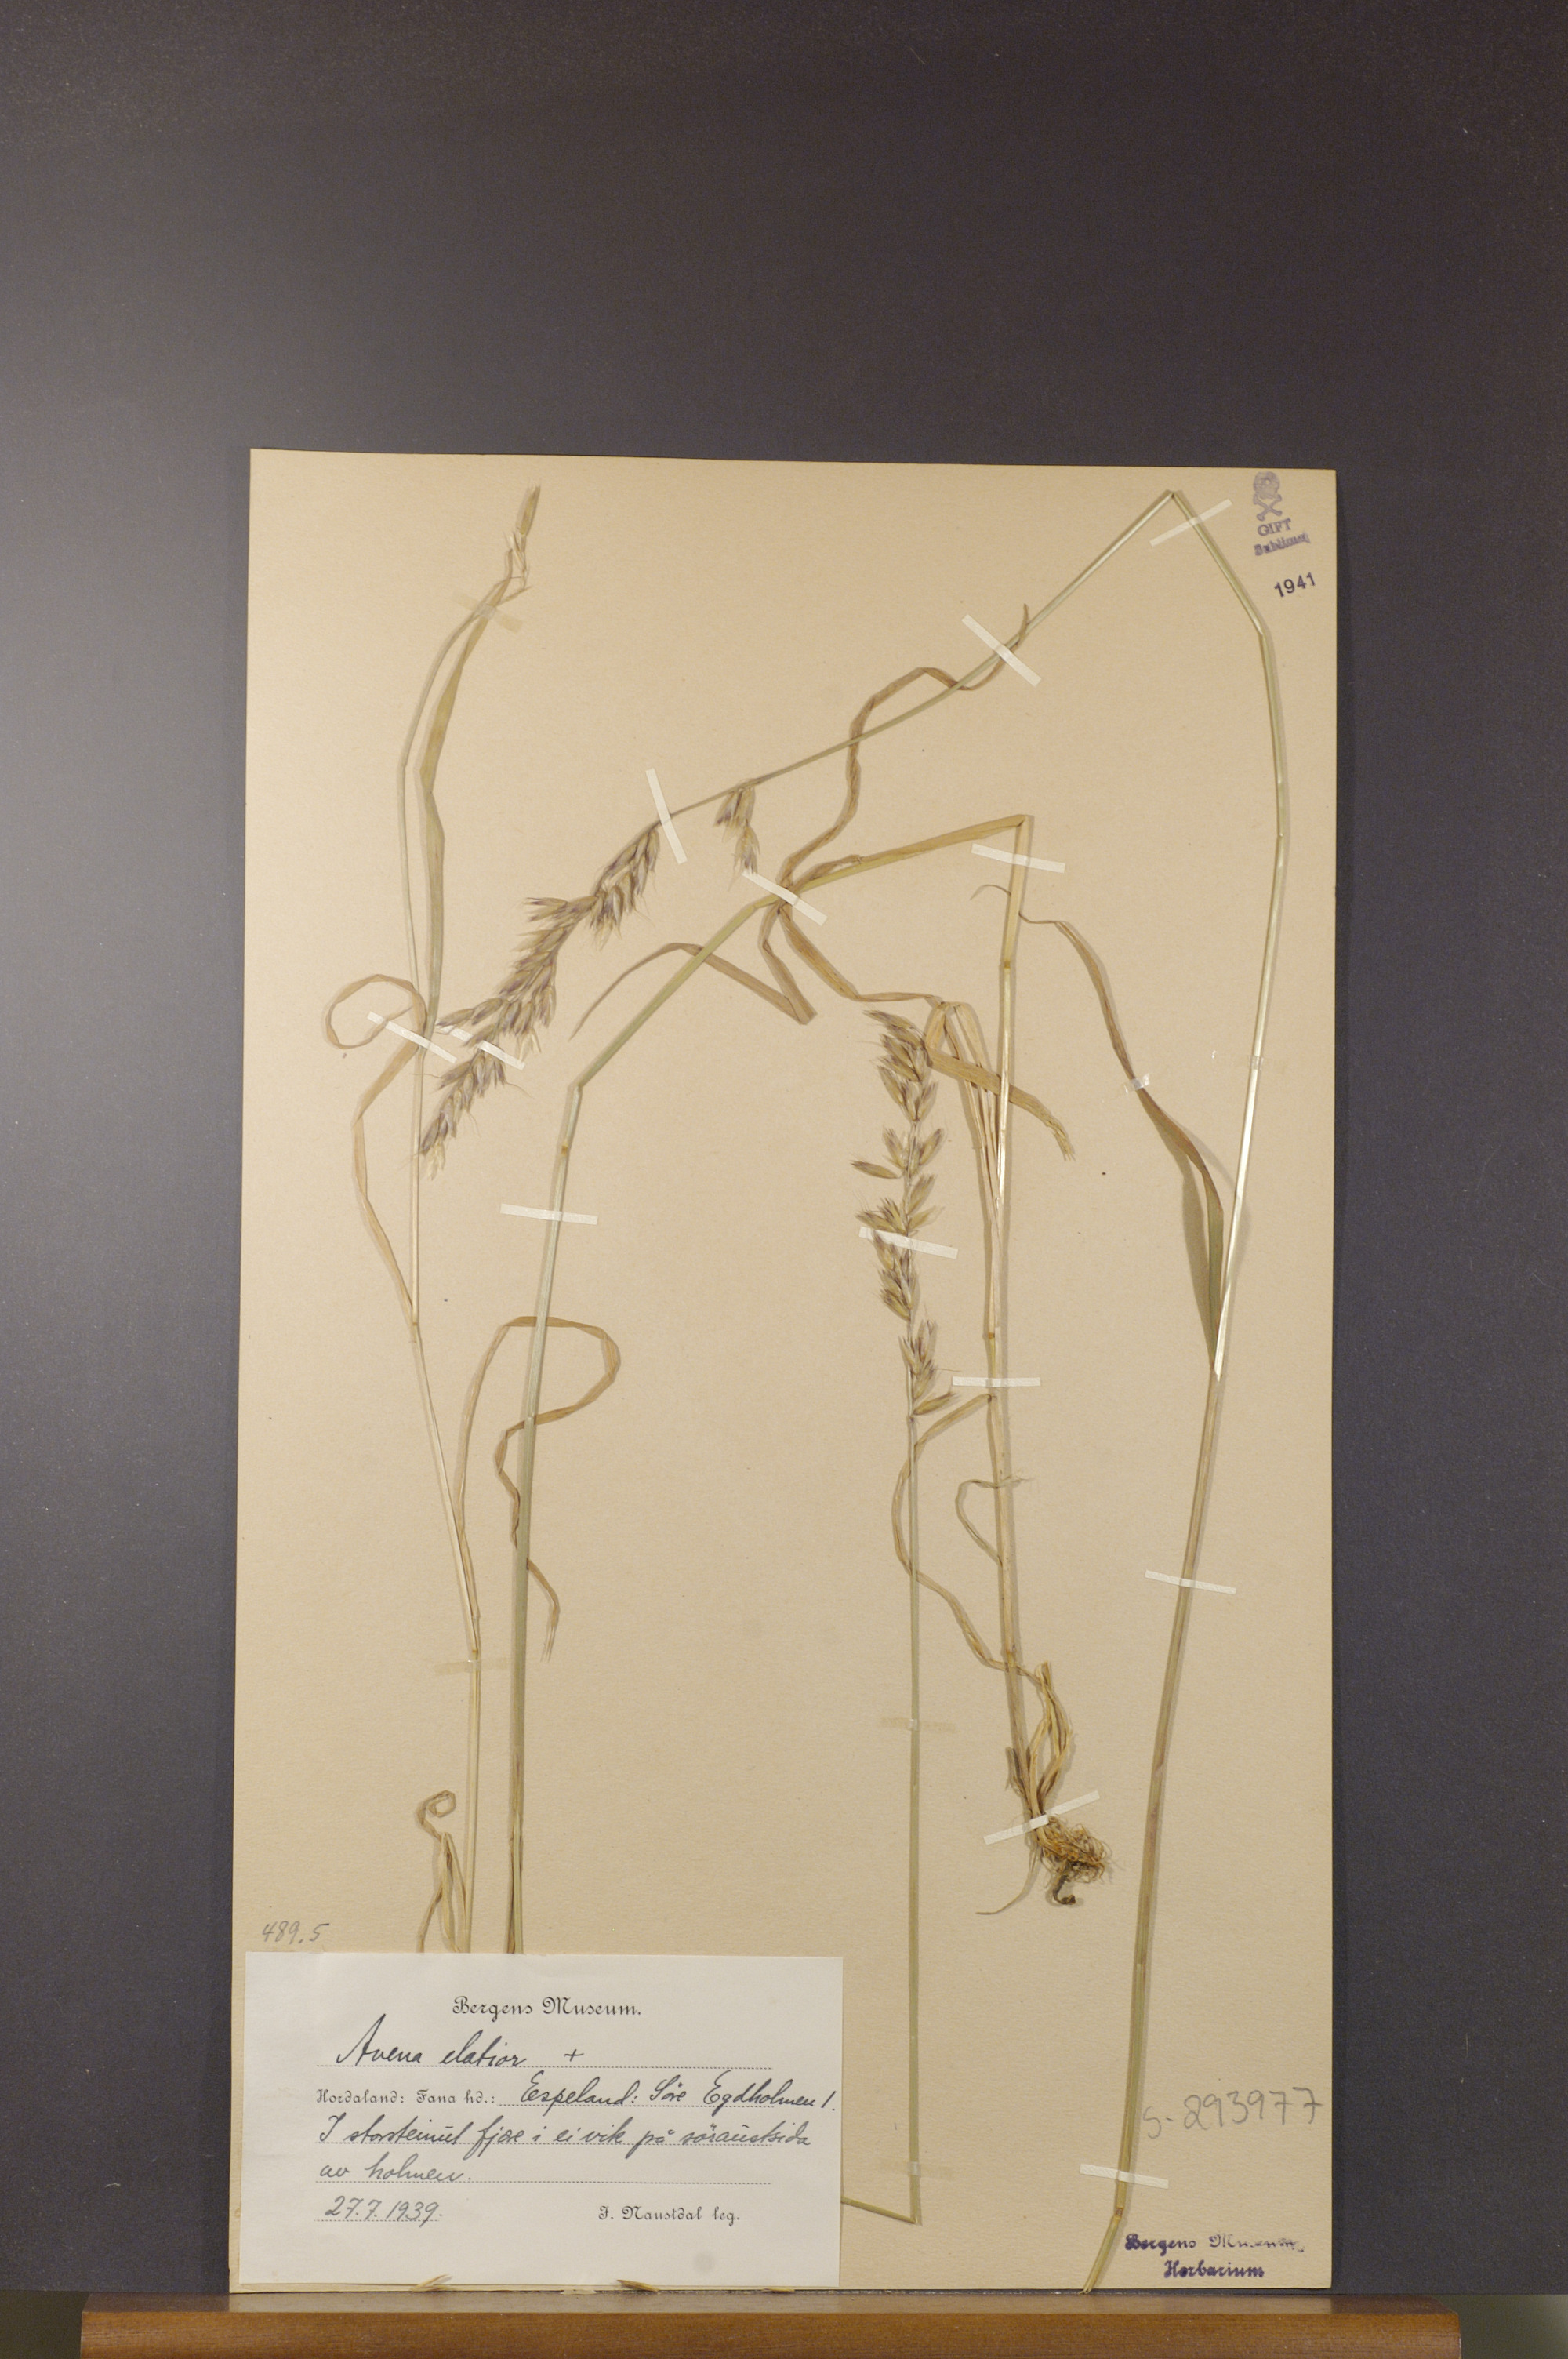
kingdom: Plantae
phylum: Tracheophyta
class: Liliopsida
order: Poales
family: Poaceae
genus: Arrhenatherum
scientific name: Arrhenatherum elatius
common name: Tall oatgrass
